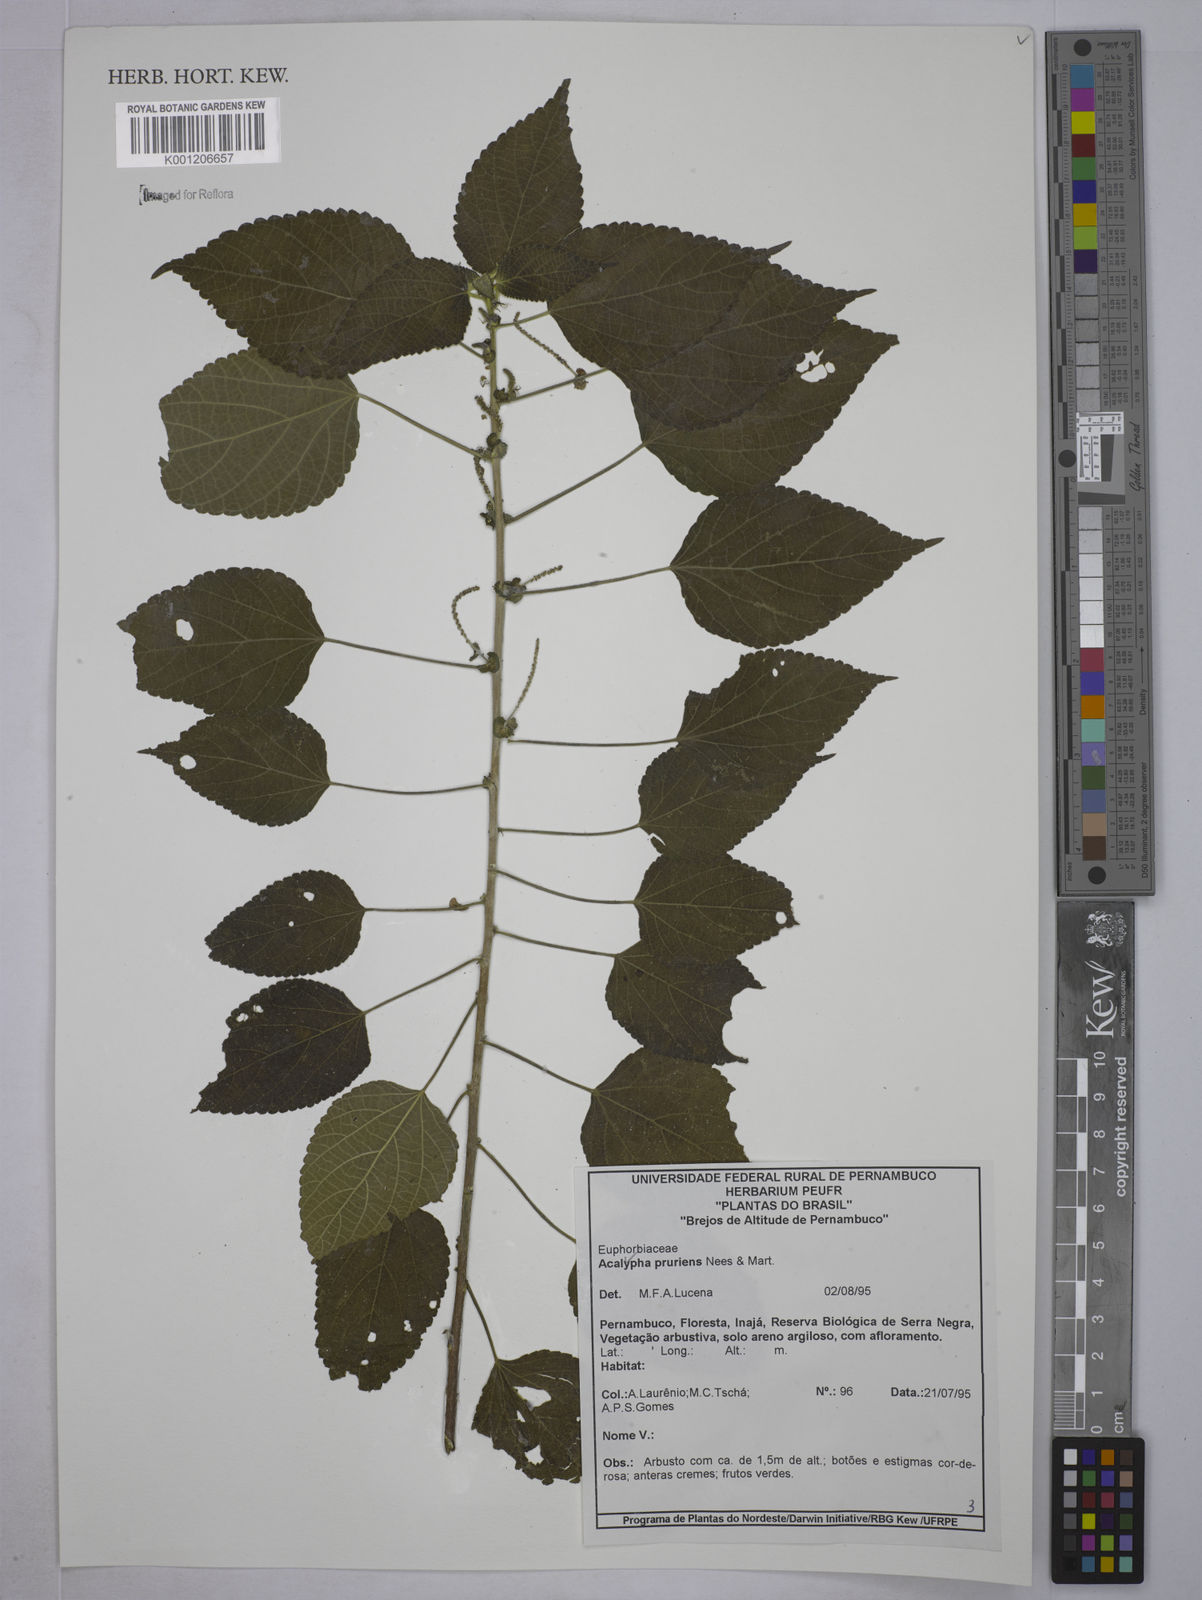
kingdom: Plantae
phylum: Tracheophyta
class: Magnoliopsida
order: Malpighiales
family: Euphorbiaceae
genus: Acalypha
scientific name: Acalypha pruriens
